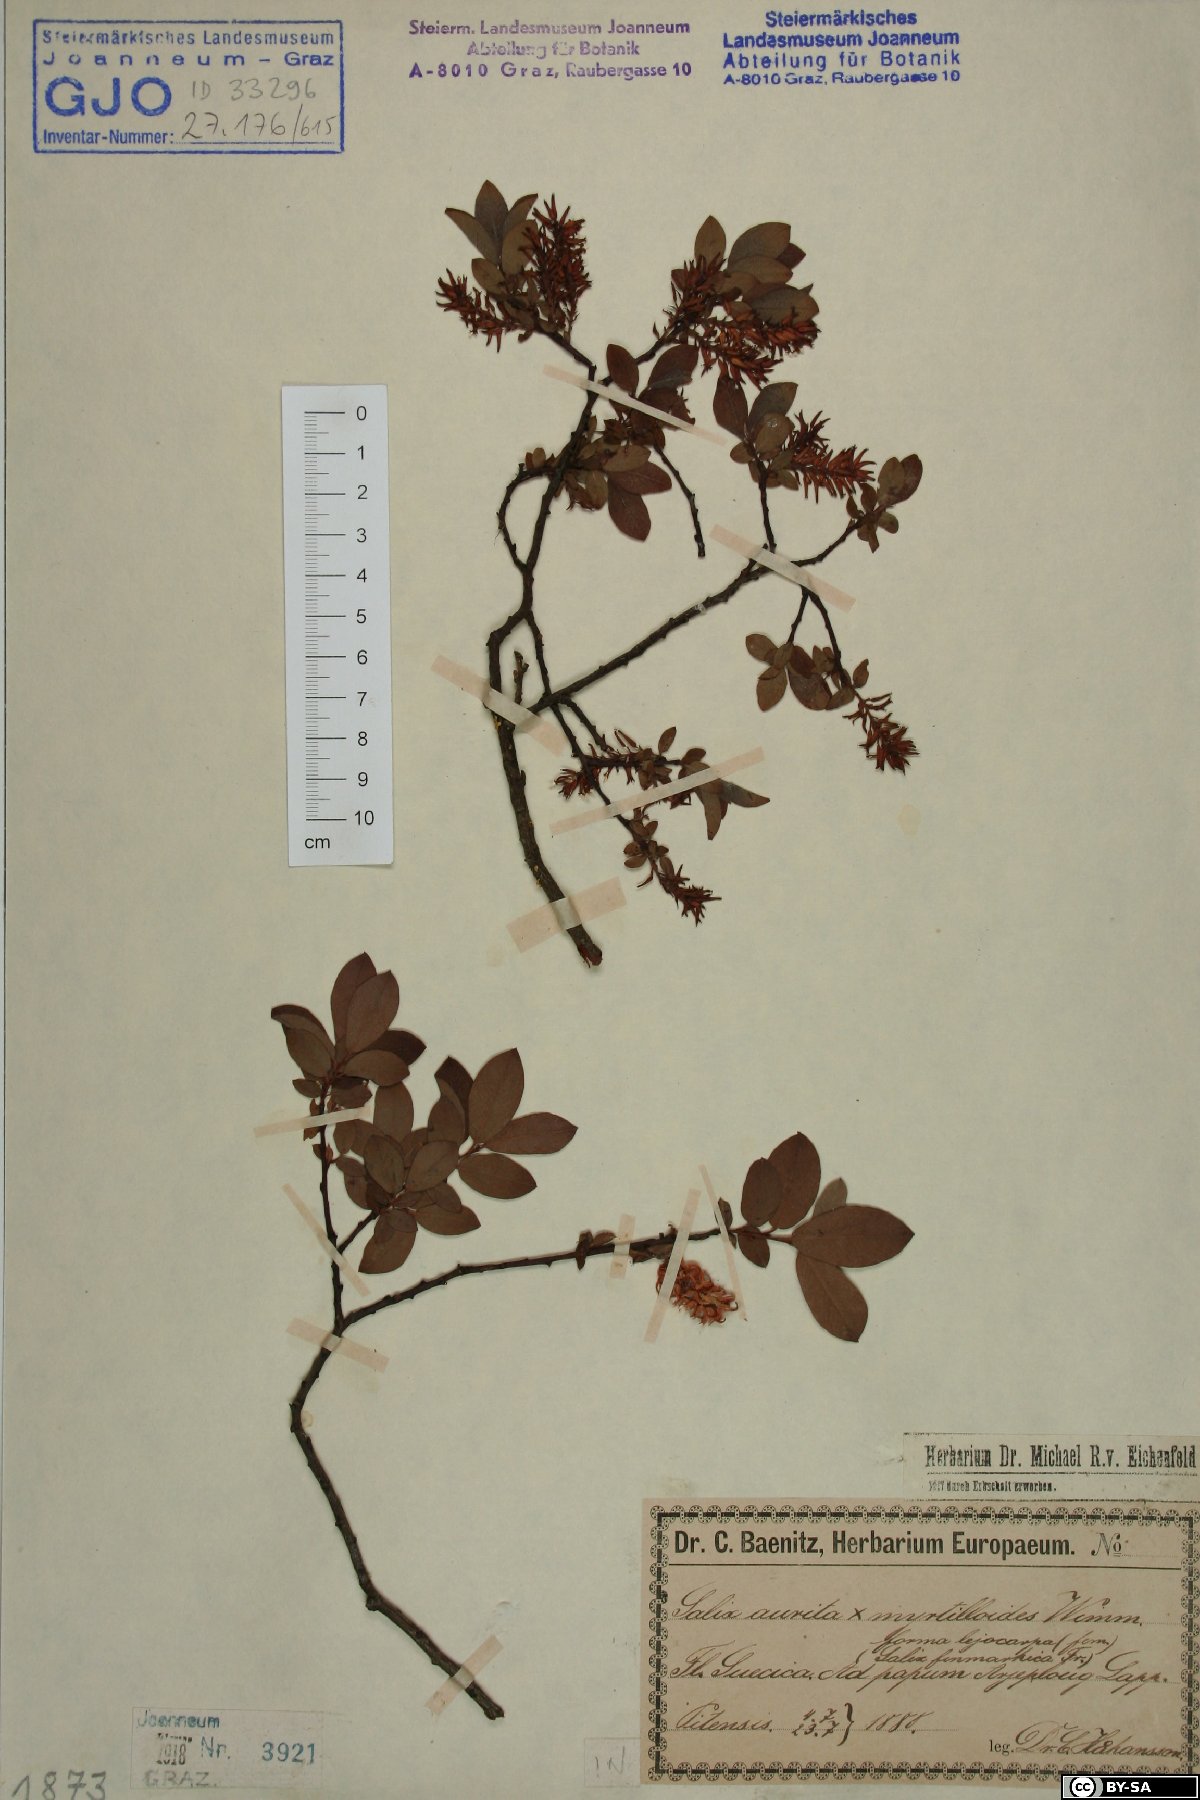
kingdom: Plantae
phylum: Tracheophyta
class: Magnoliopsida
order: Malpighiales
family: Salicaceae
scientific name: Salicaceae
